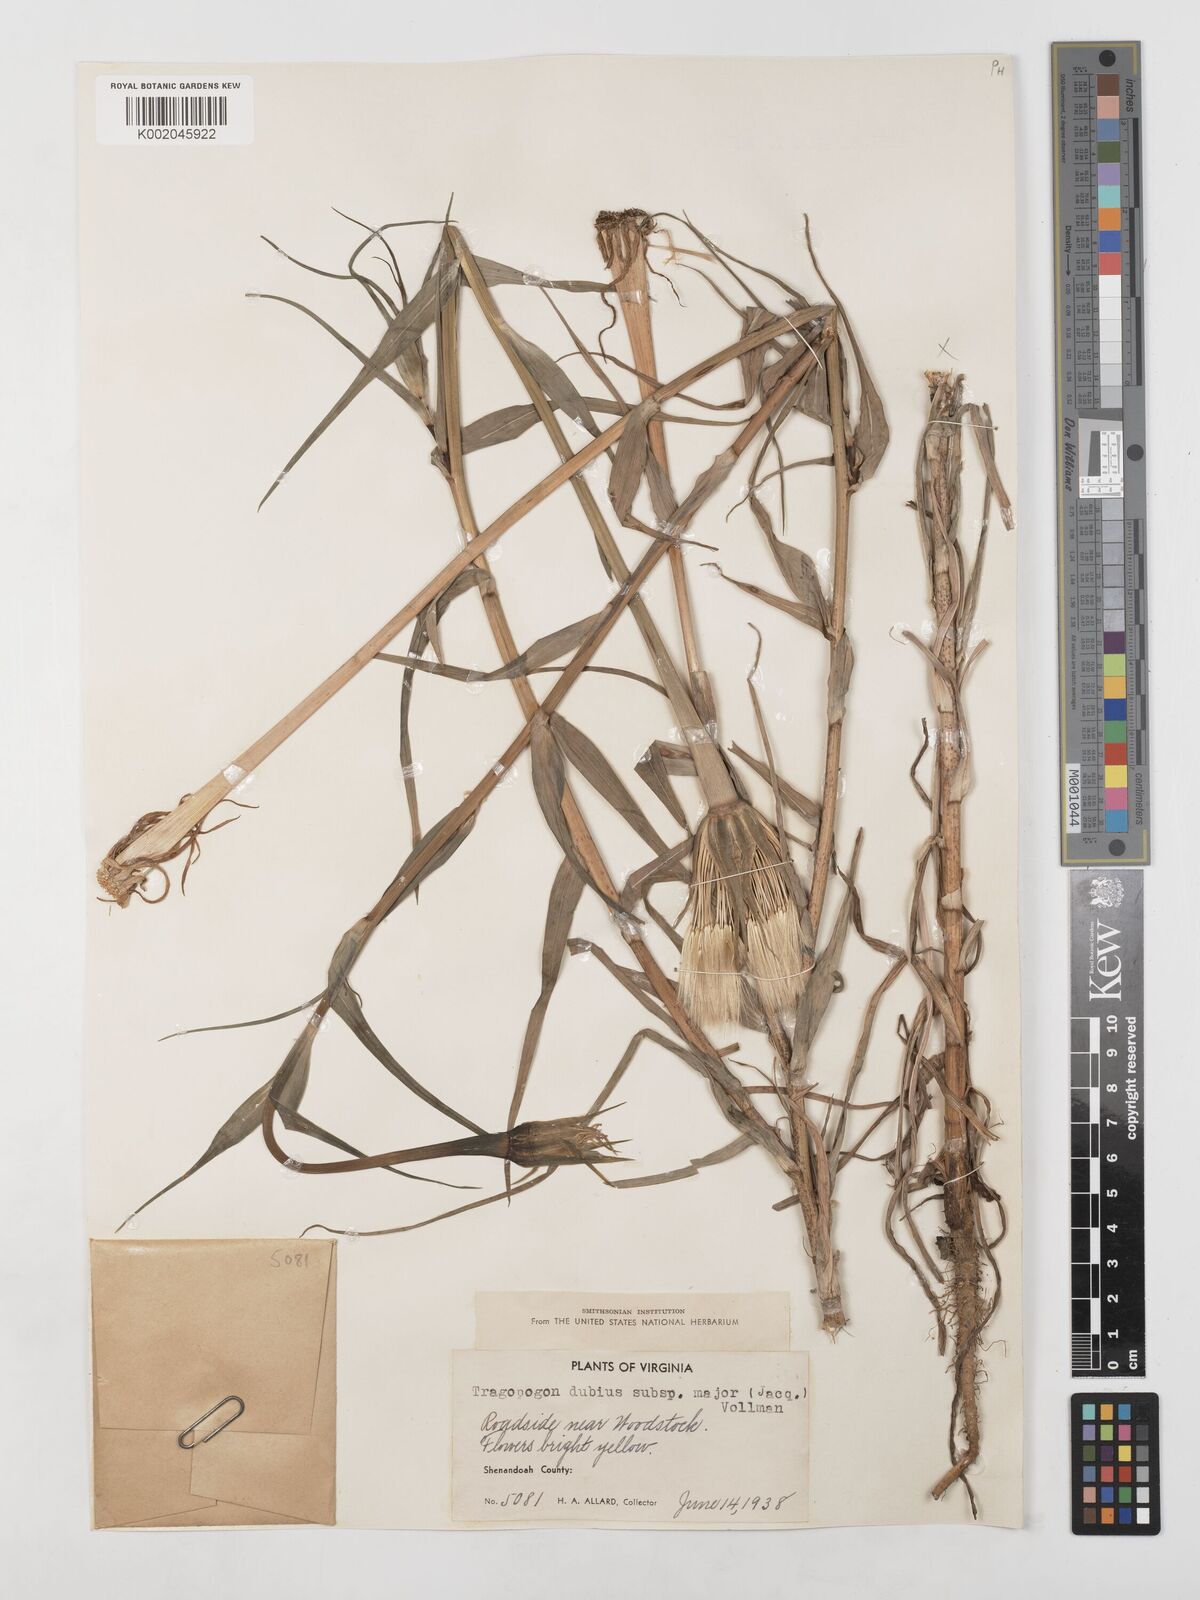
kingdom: Plantae
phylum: Tracheophyta
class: Magnoliopsida
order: Asterales
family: Asteraceae
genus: Tragopogon
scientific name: Tragopogon dubius
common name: Yellow salsify
